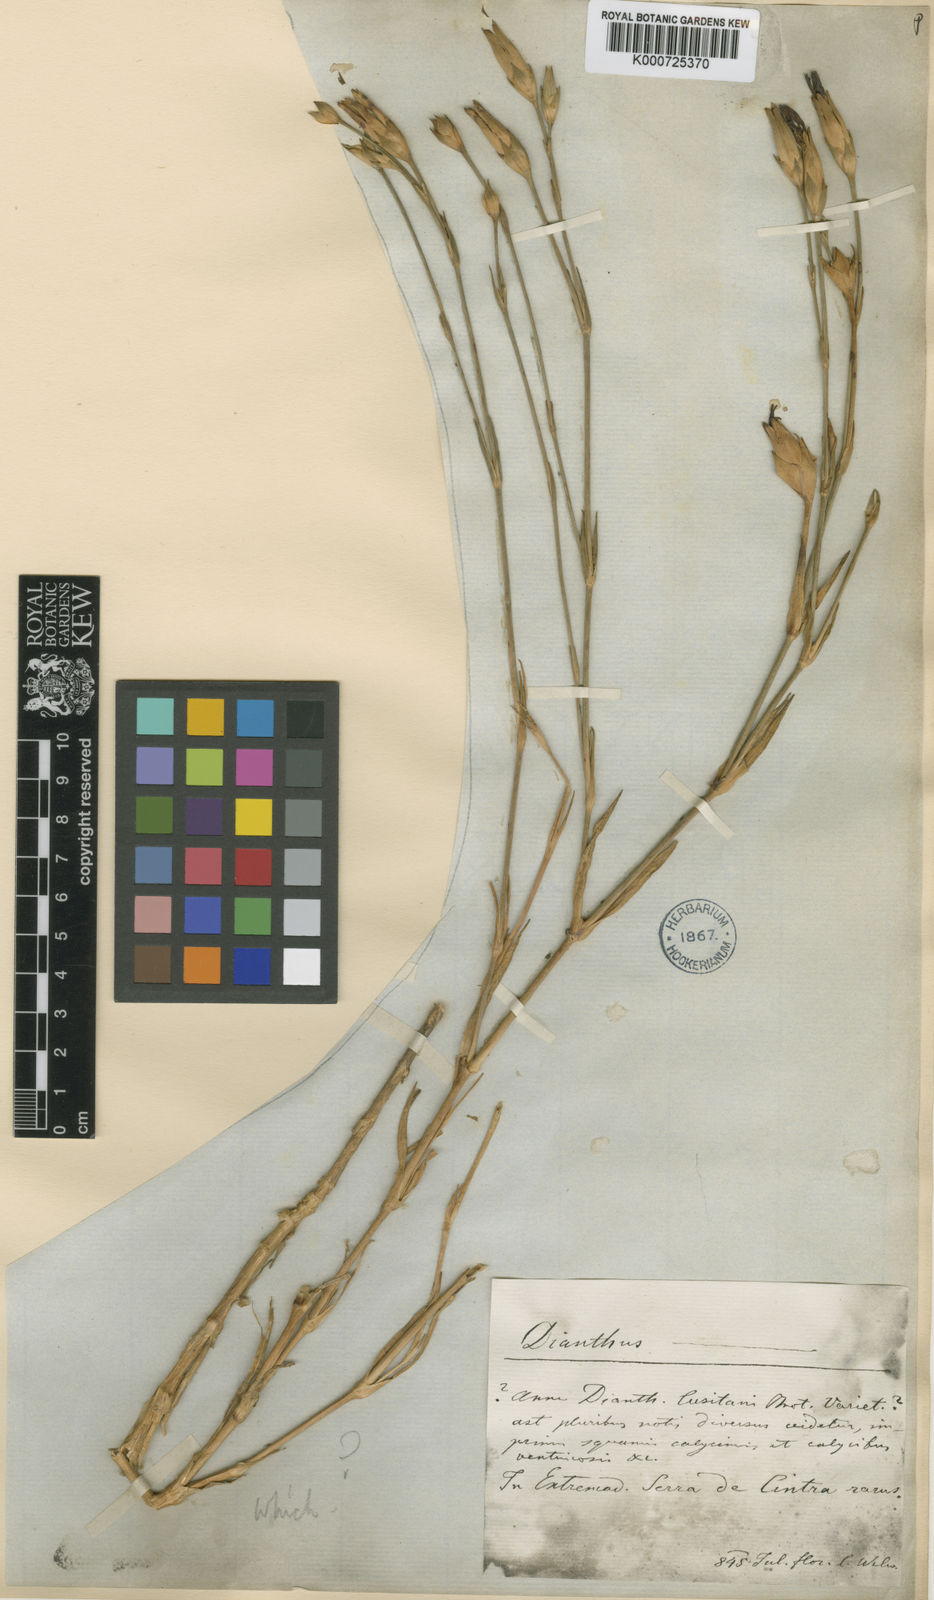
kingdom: Plantae
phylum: Tracheophyta
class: Magnoliopsida
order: Caryophyllales
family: Caryophyllaceae
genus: Dianthus
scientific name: Dianthus cintranus
